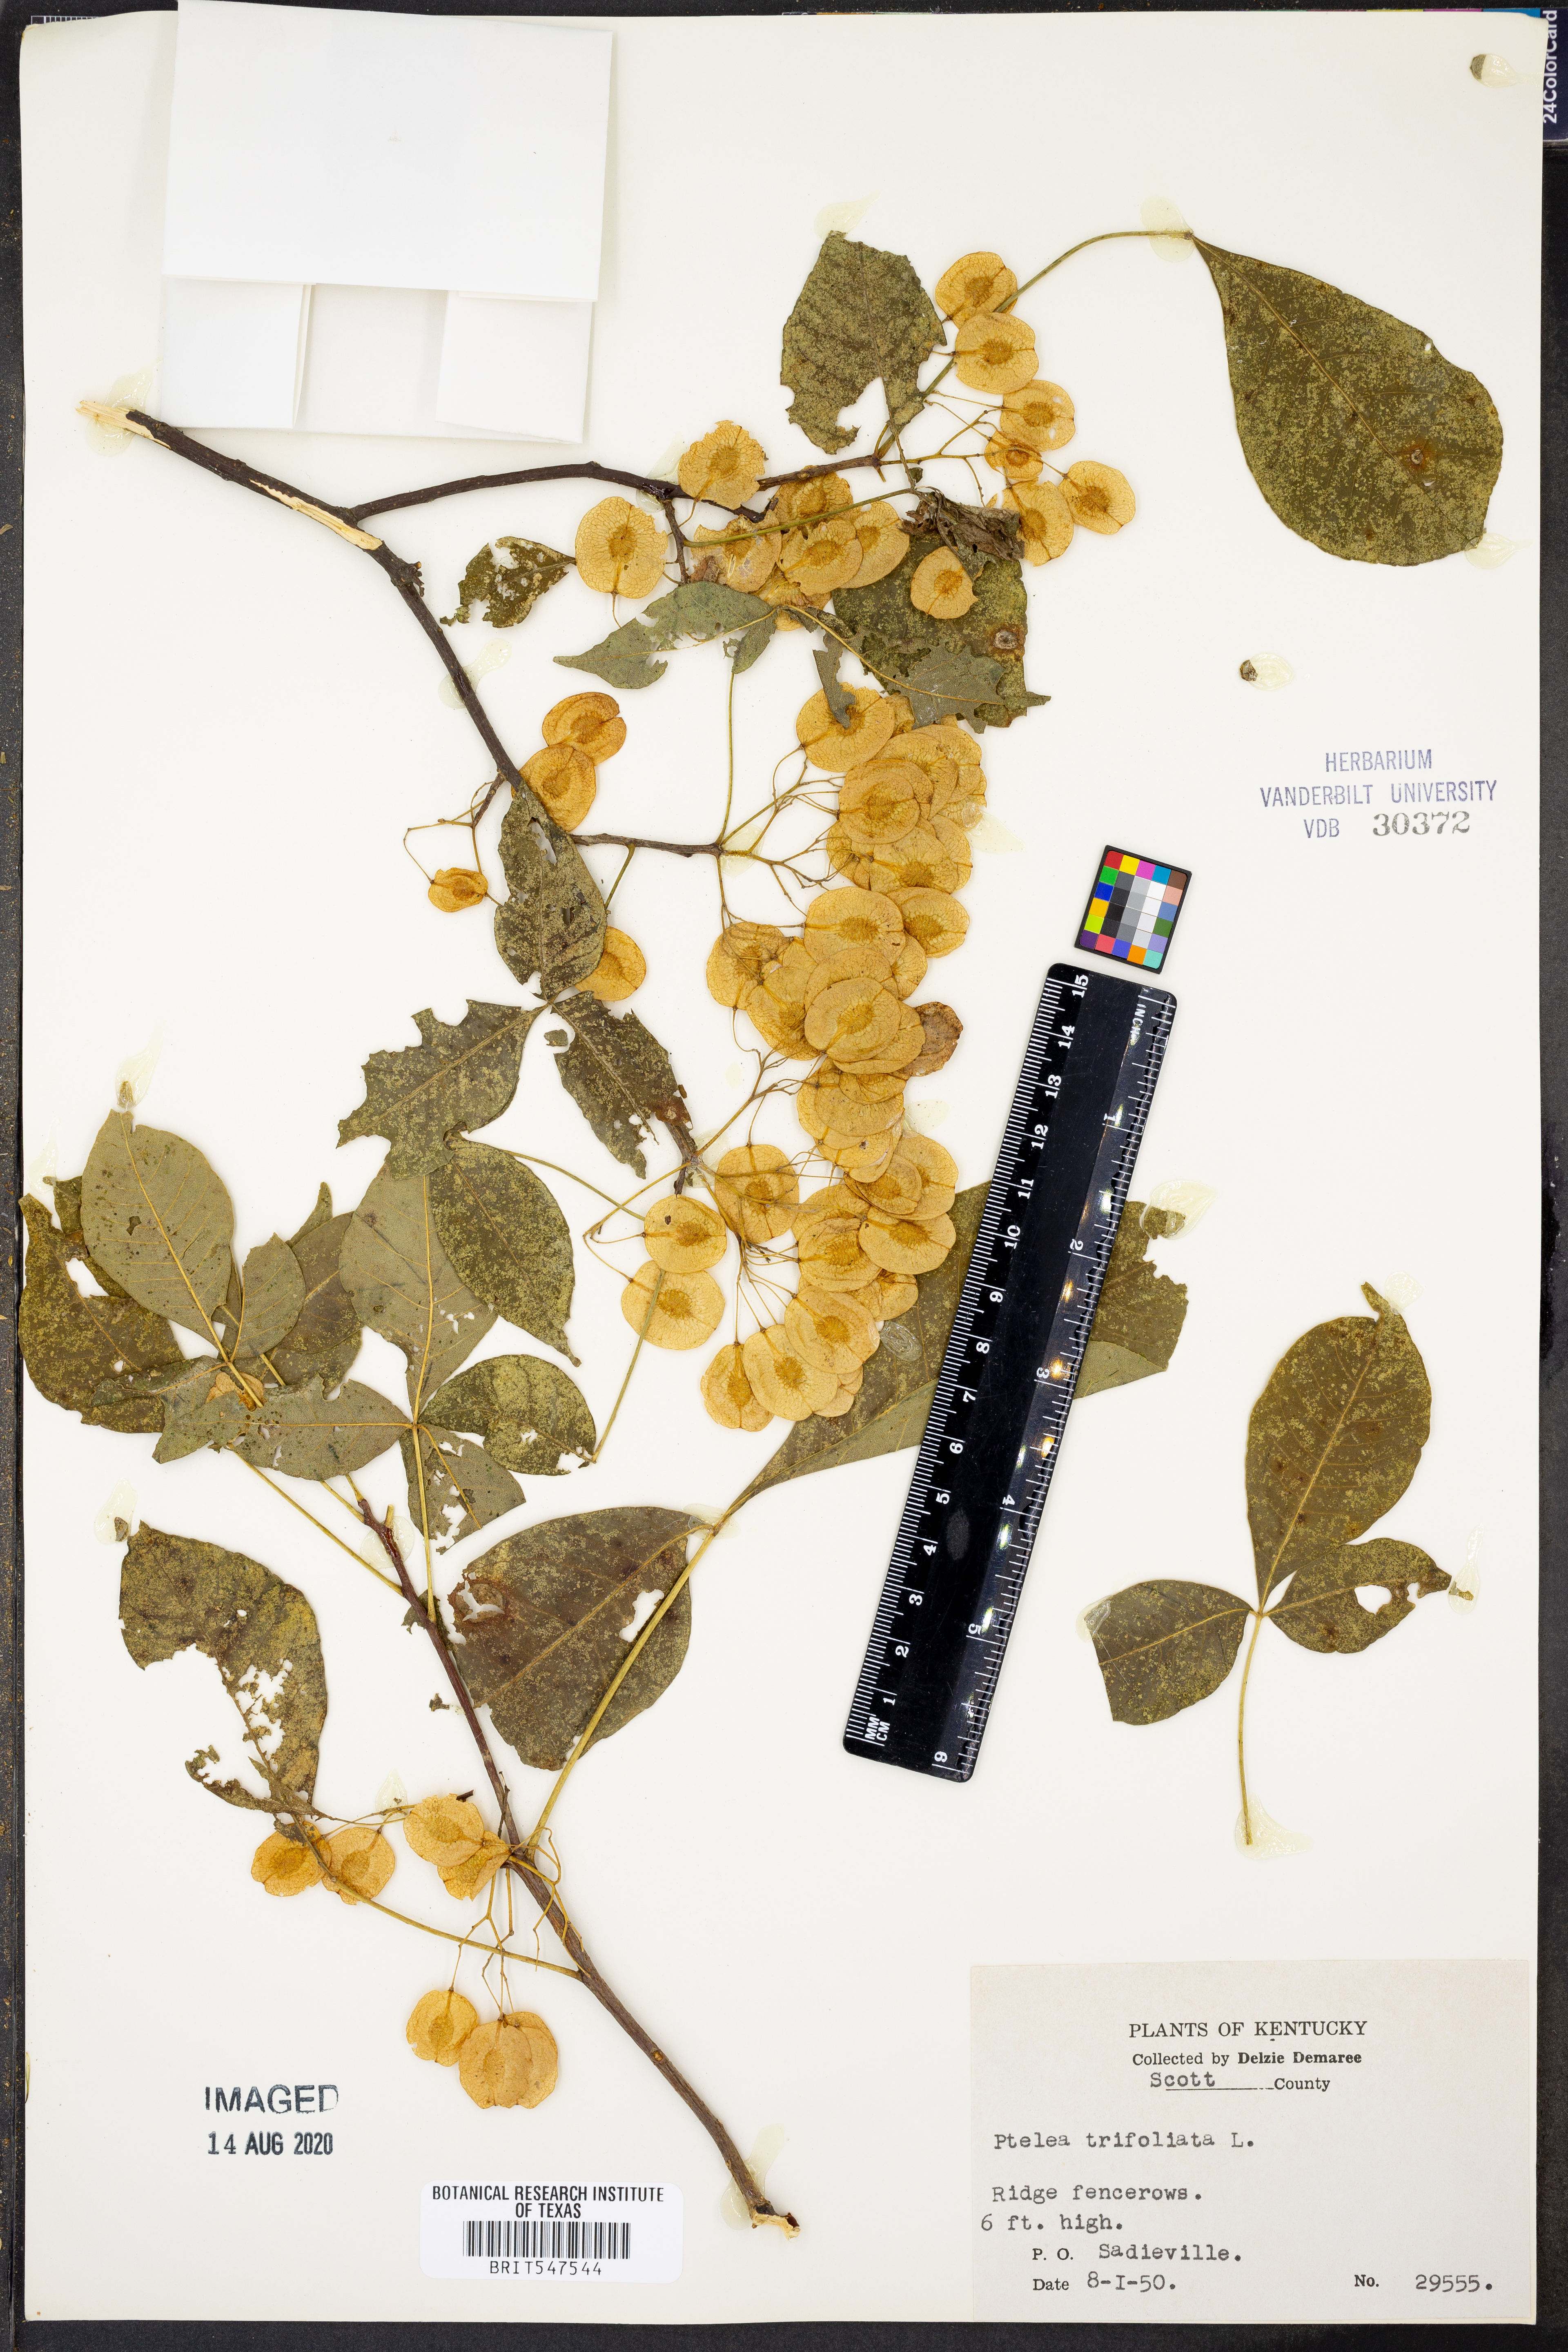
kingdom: Plantae
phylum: Tracheophyta
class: Magnoliopsida
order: Sapindales
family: Rutaceae
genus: Ptelea
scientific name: Ptelea trifoliata
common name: Common hop-tree
